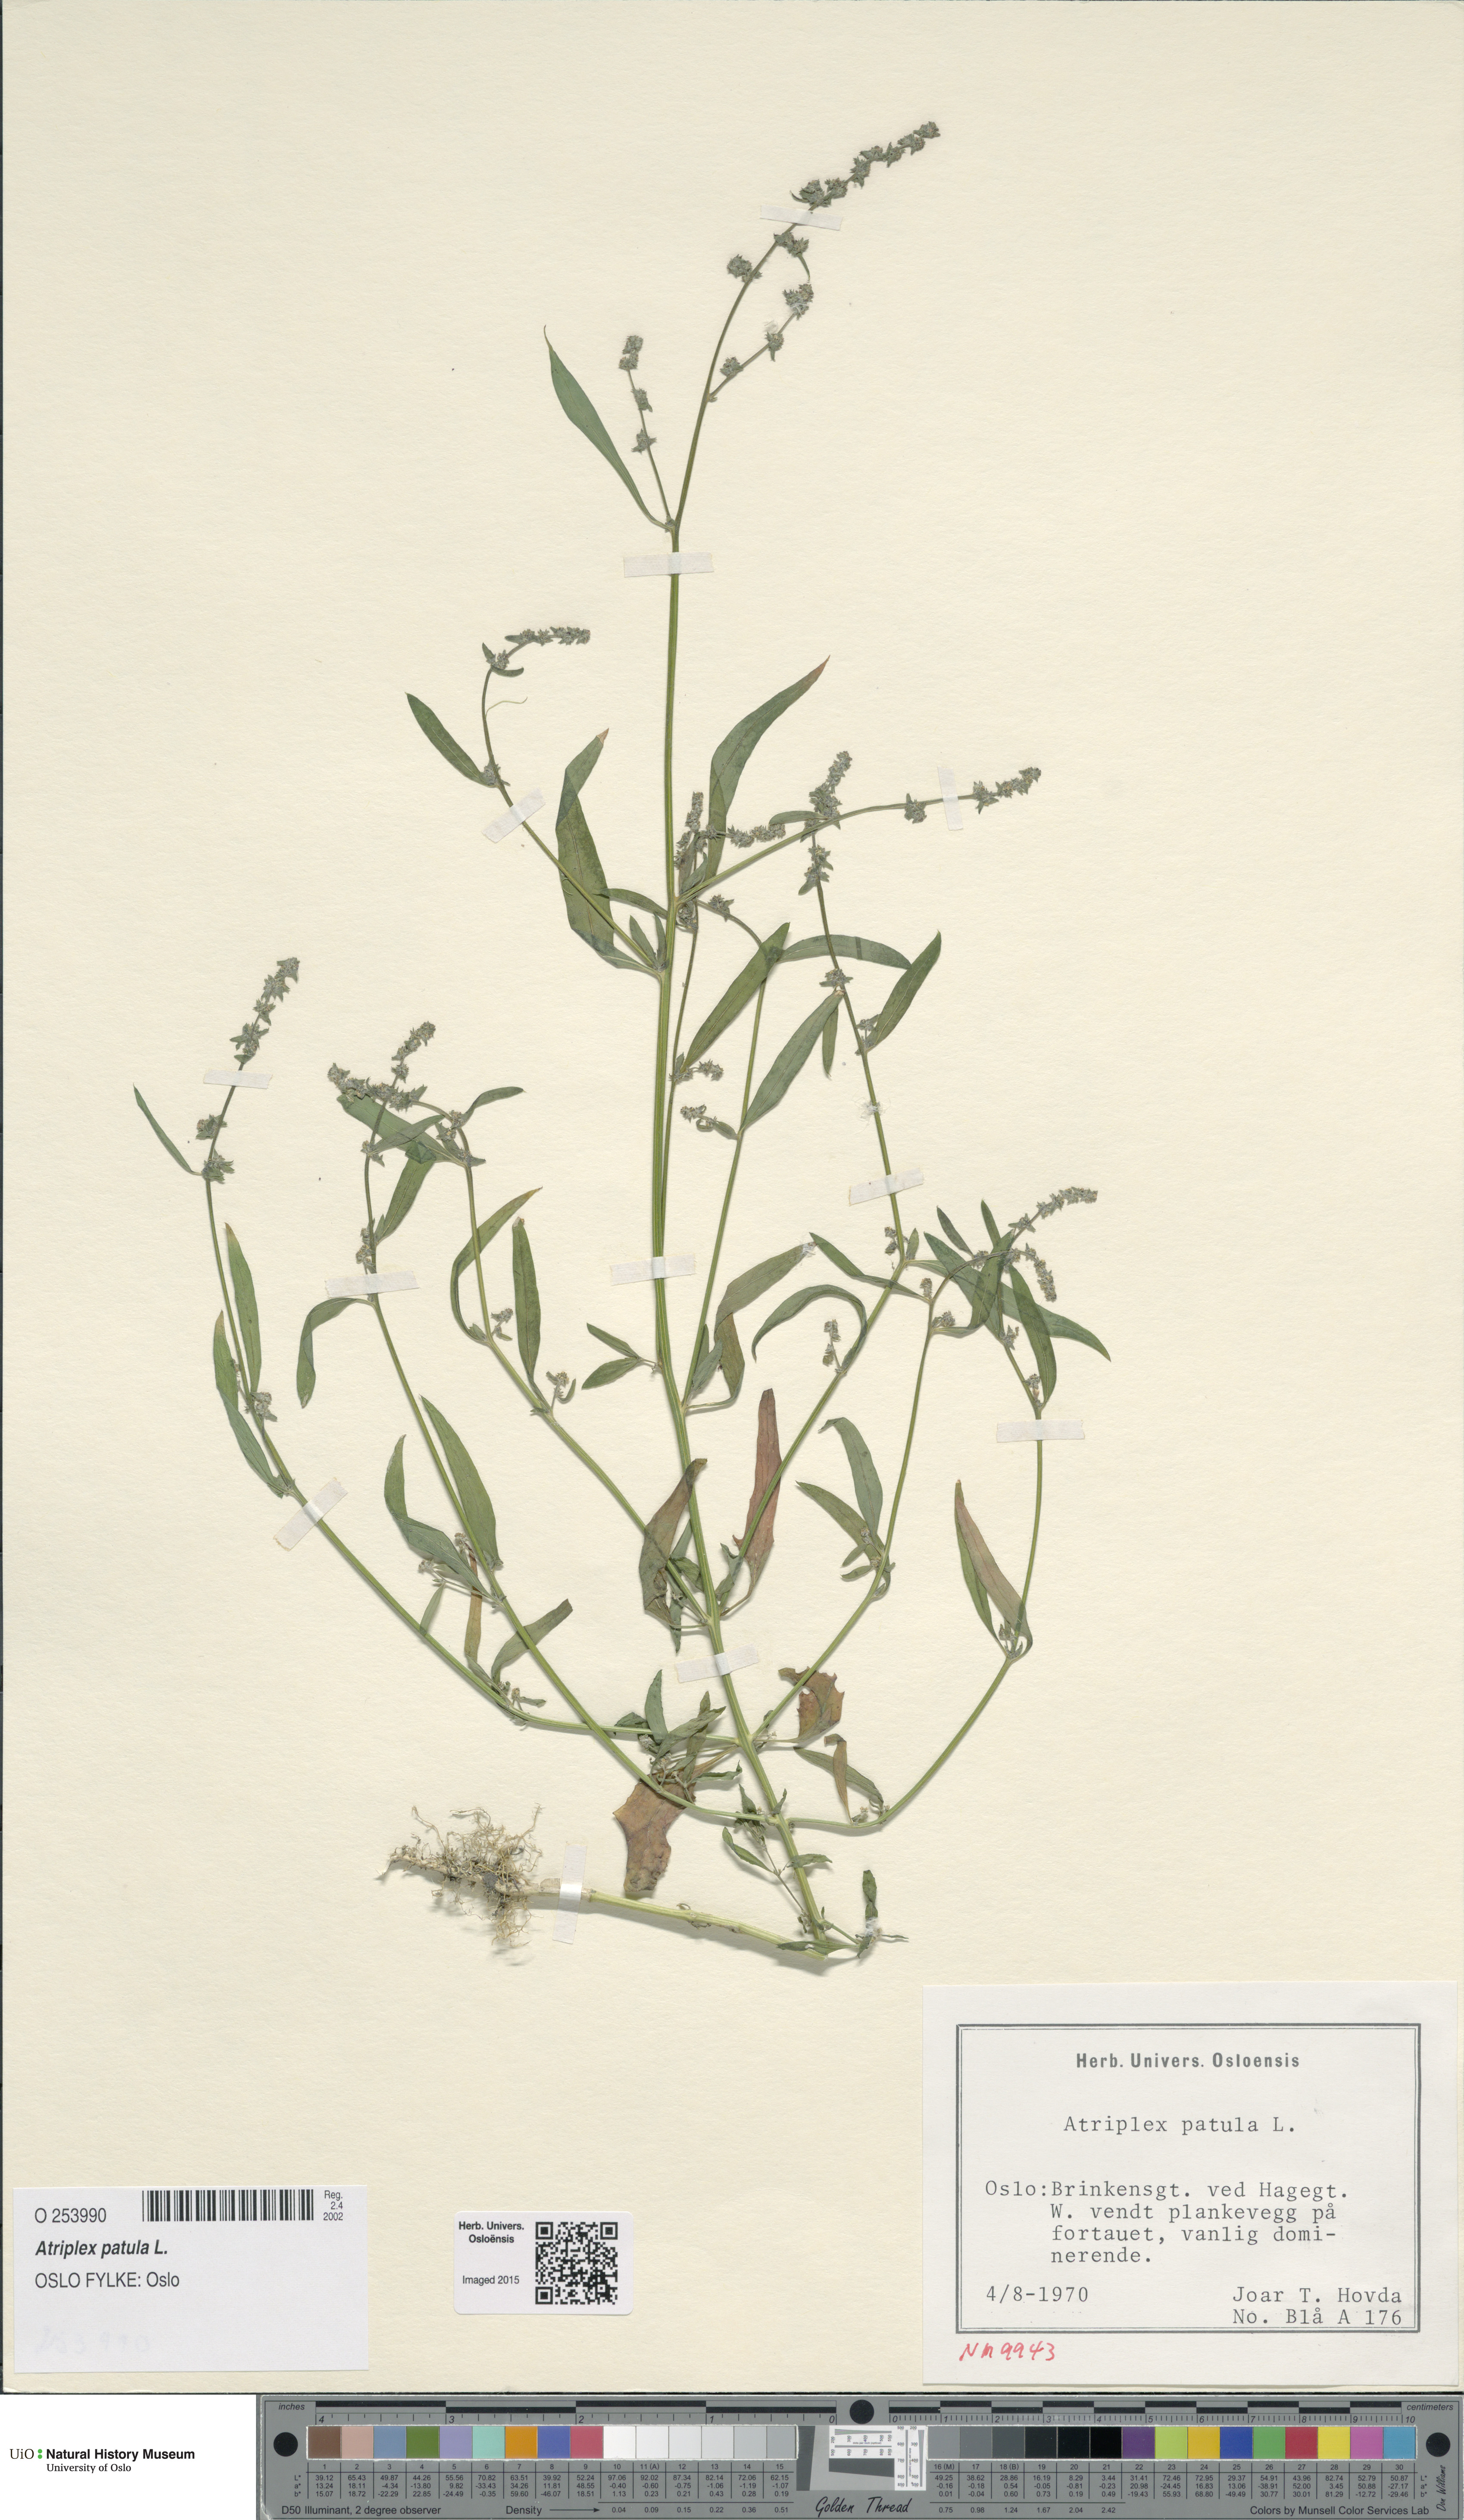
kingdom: Plantae
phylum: Tracheophyta
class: Magnoliopsida
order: Caryophyllales
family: Amaranthaceae
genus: Atriplex
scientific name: Atriplex patula
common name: Common orache
